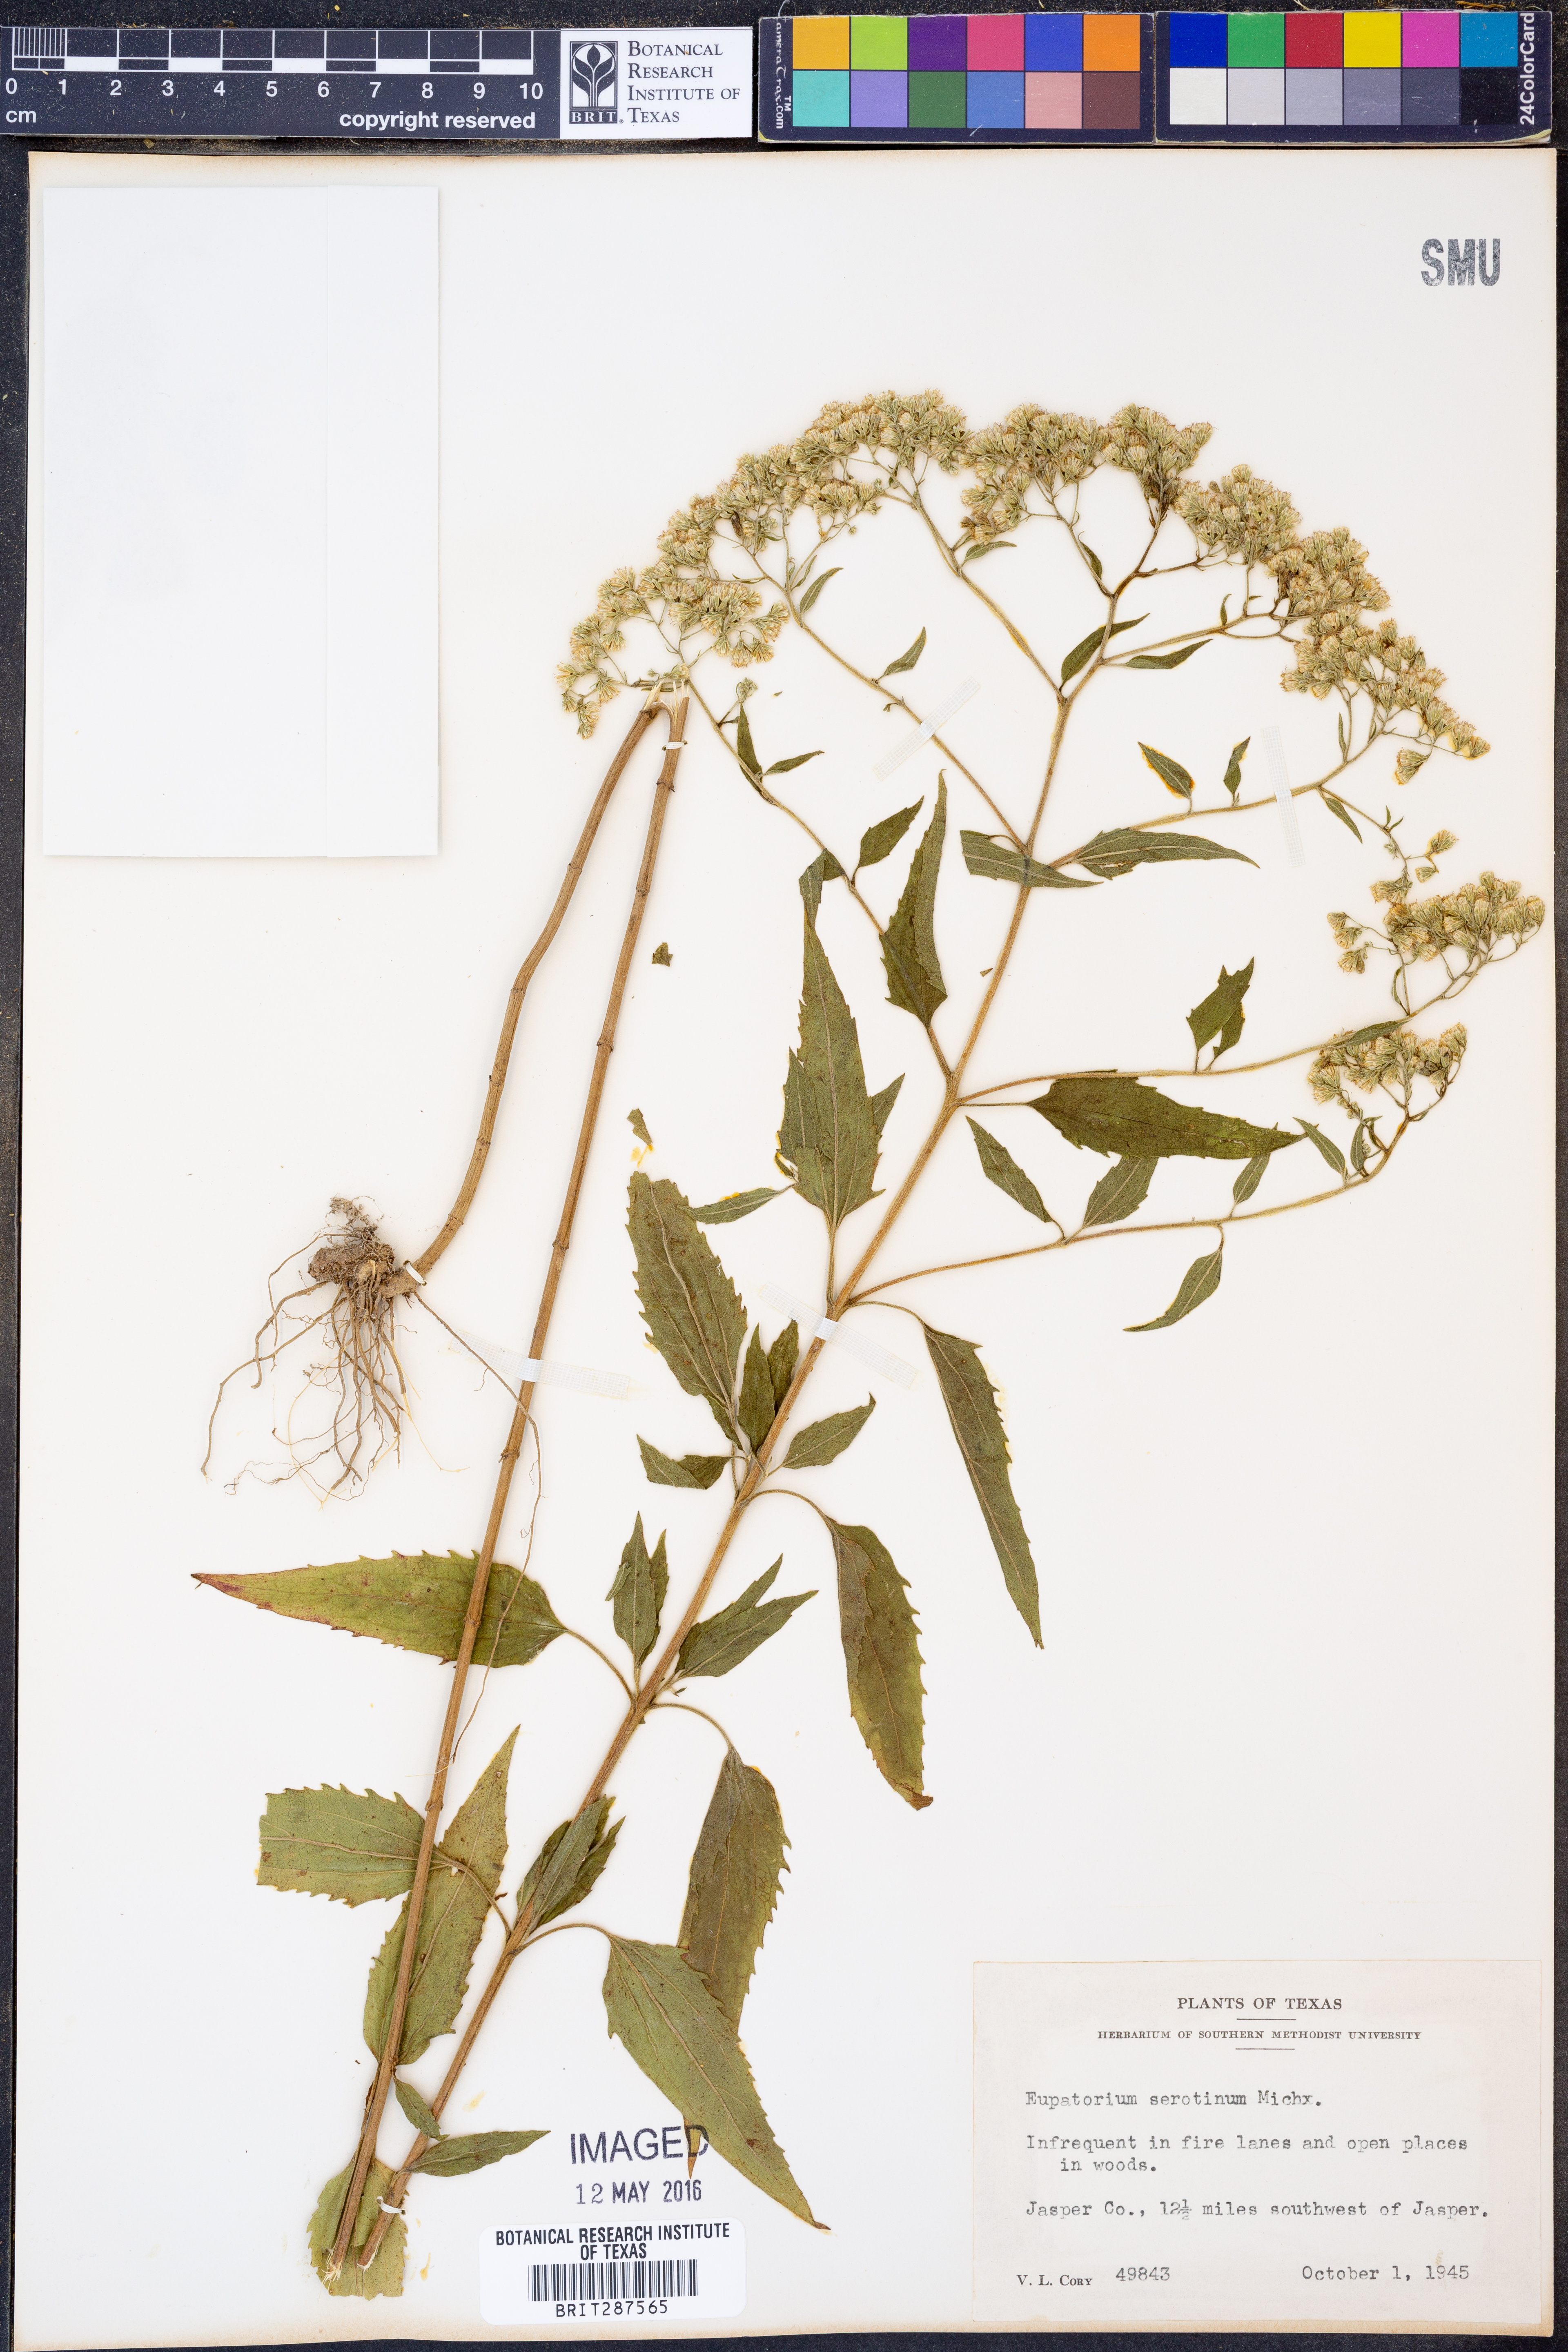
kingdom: Plantae
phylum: Tracheophyta
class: Magnoliopsida
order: Asterales
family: Asteraceae
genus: Eupatorium
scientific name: Eupatorium serotinum
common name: Late boneset
